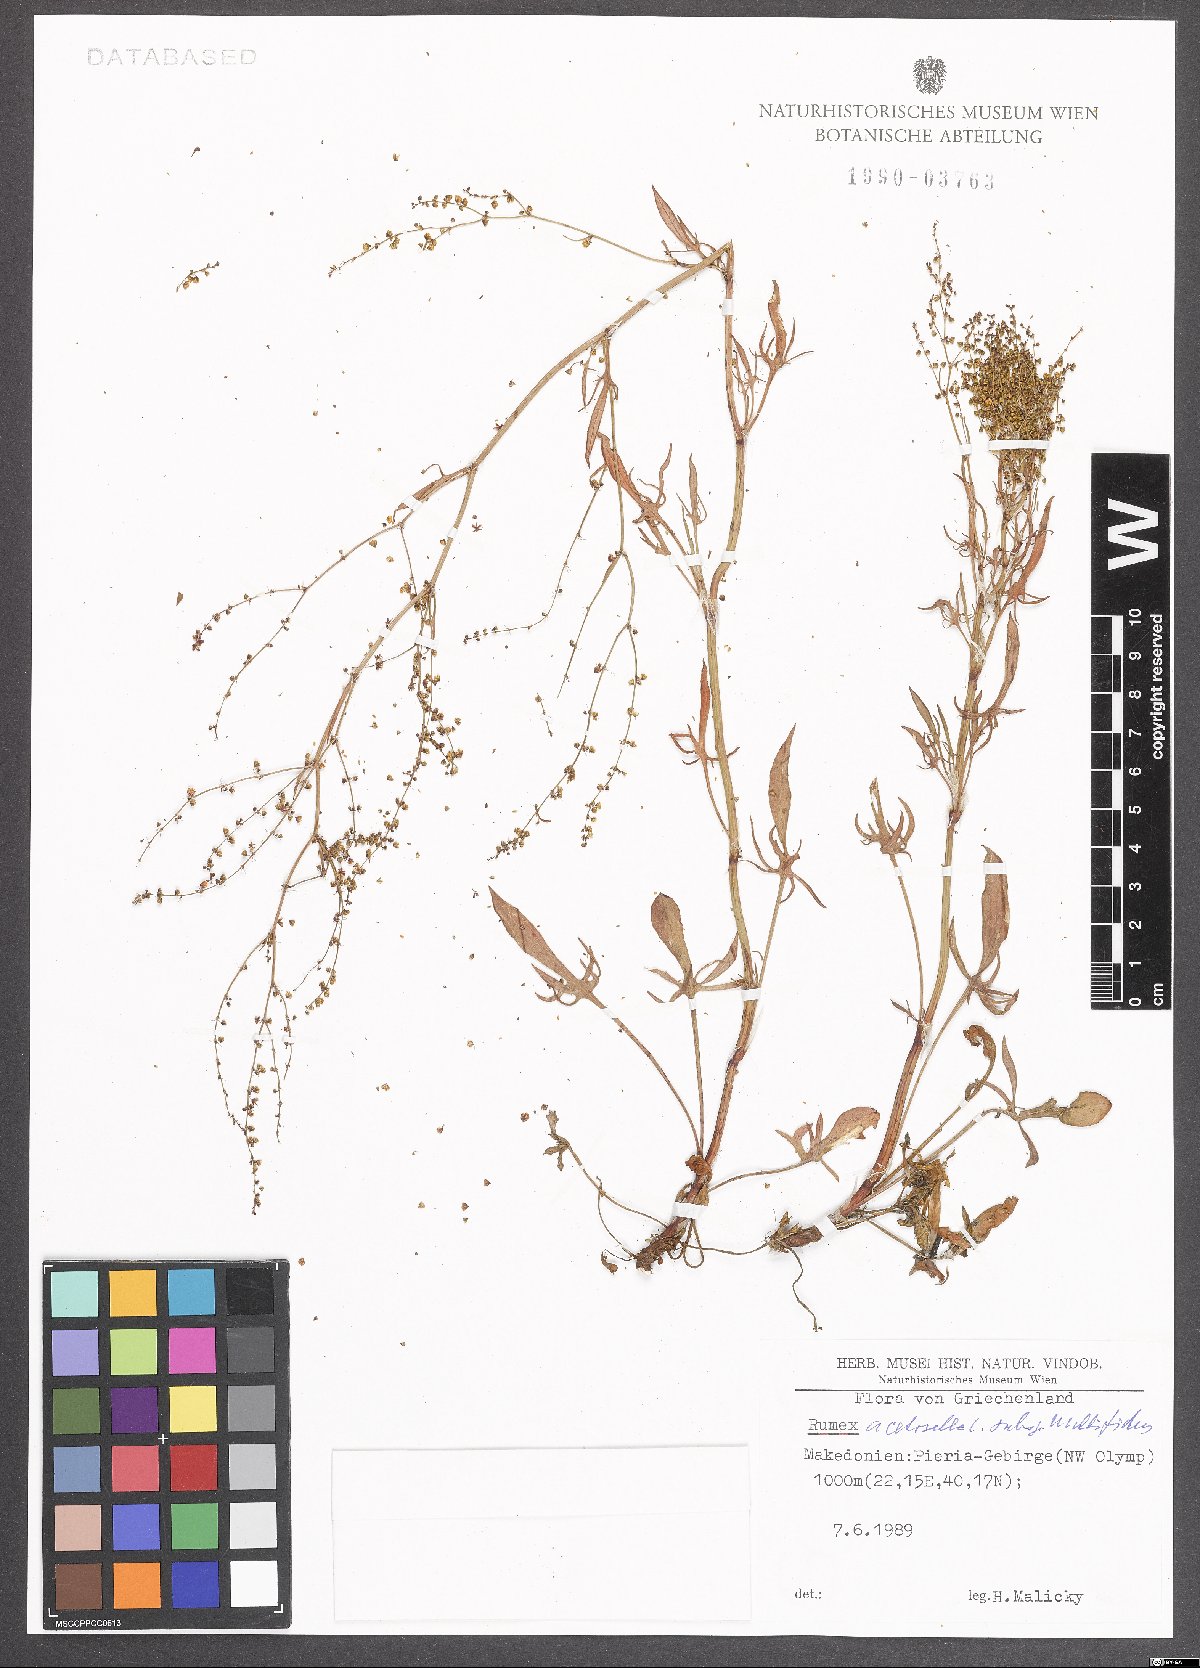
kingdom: Plantae
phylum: Tracheophyta
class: Magnoliopsida
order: Caryophyllales
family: Polygonaceae
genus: Rumex
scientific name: Rumex acetosella
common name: Common sheep sorrel
